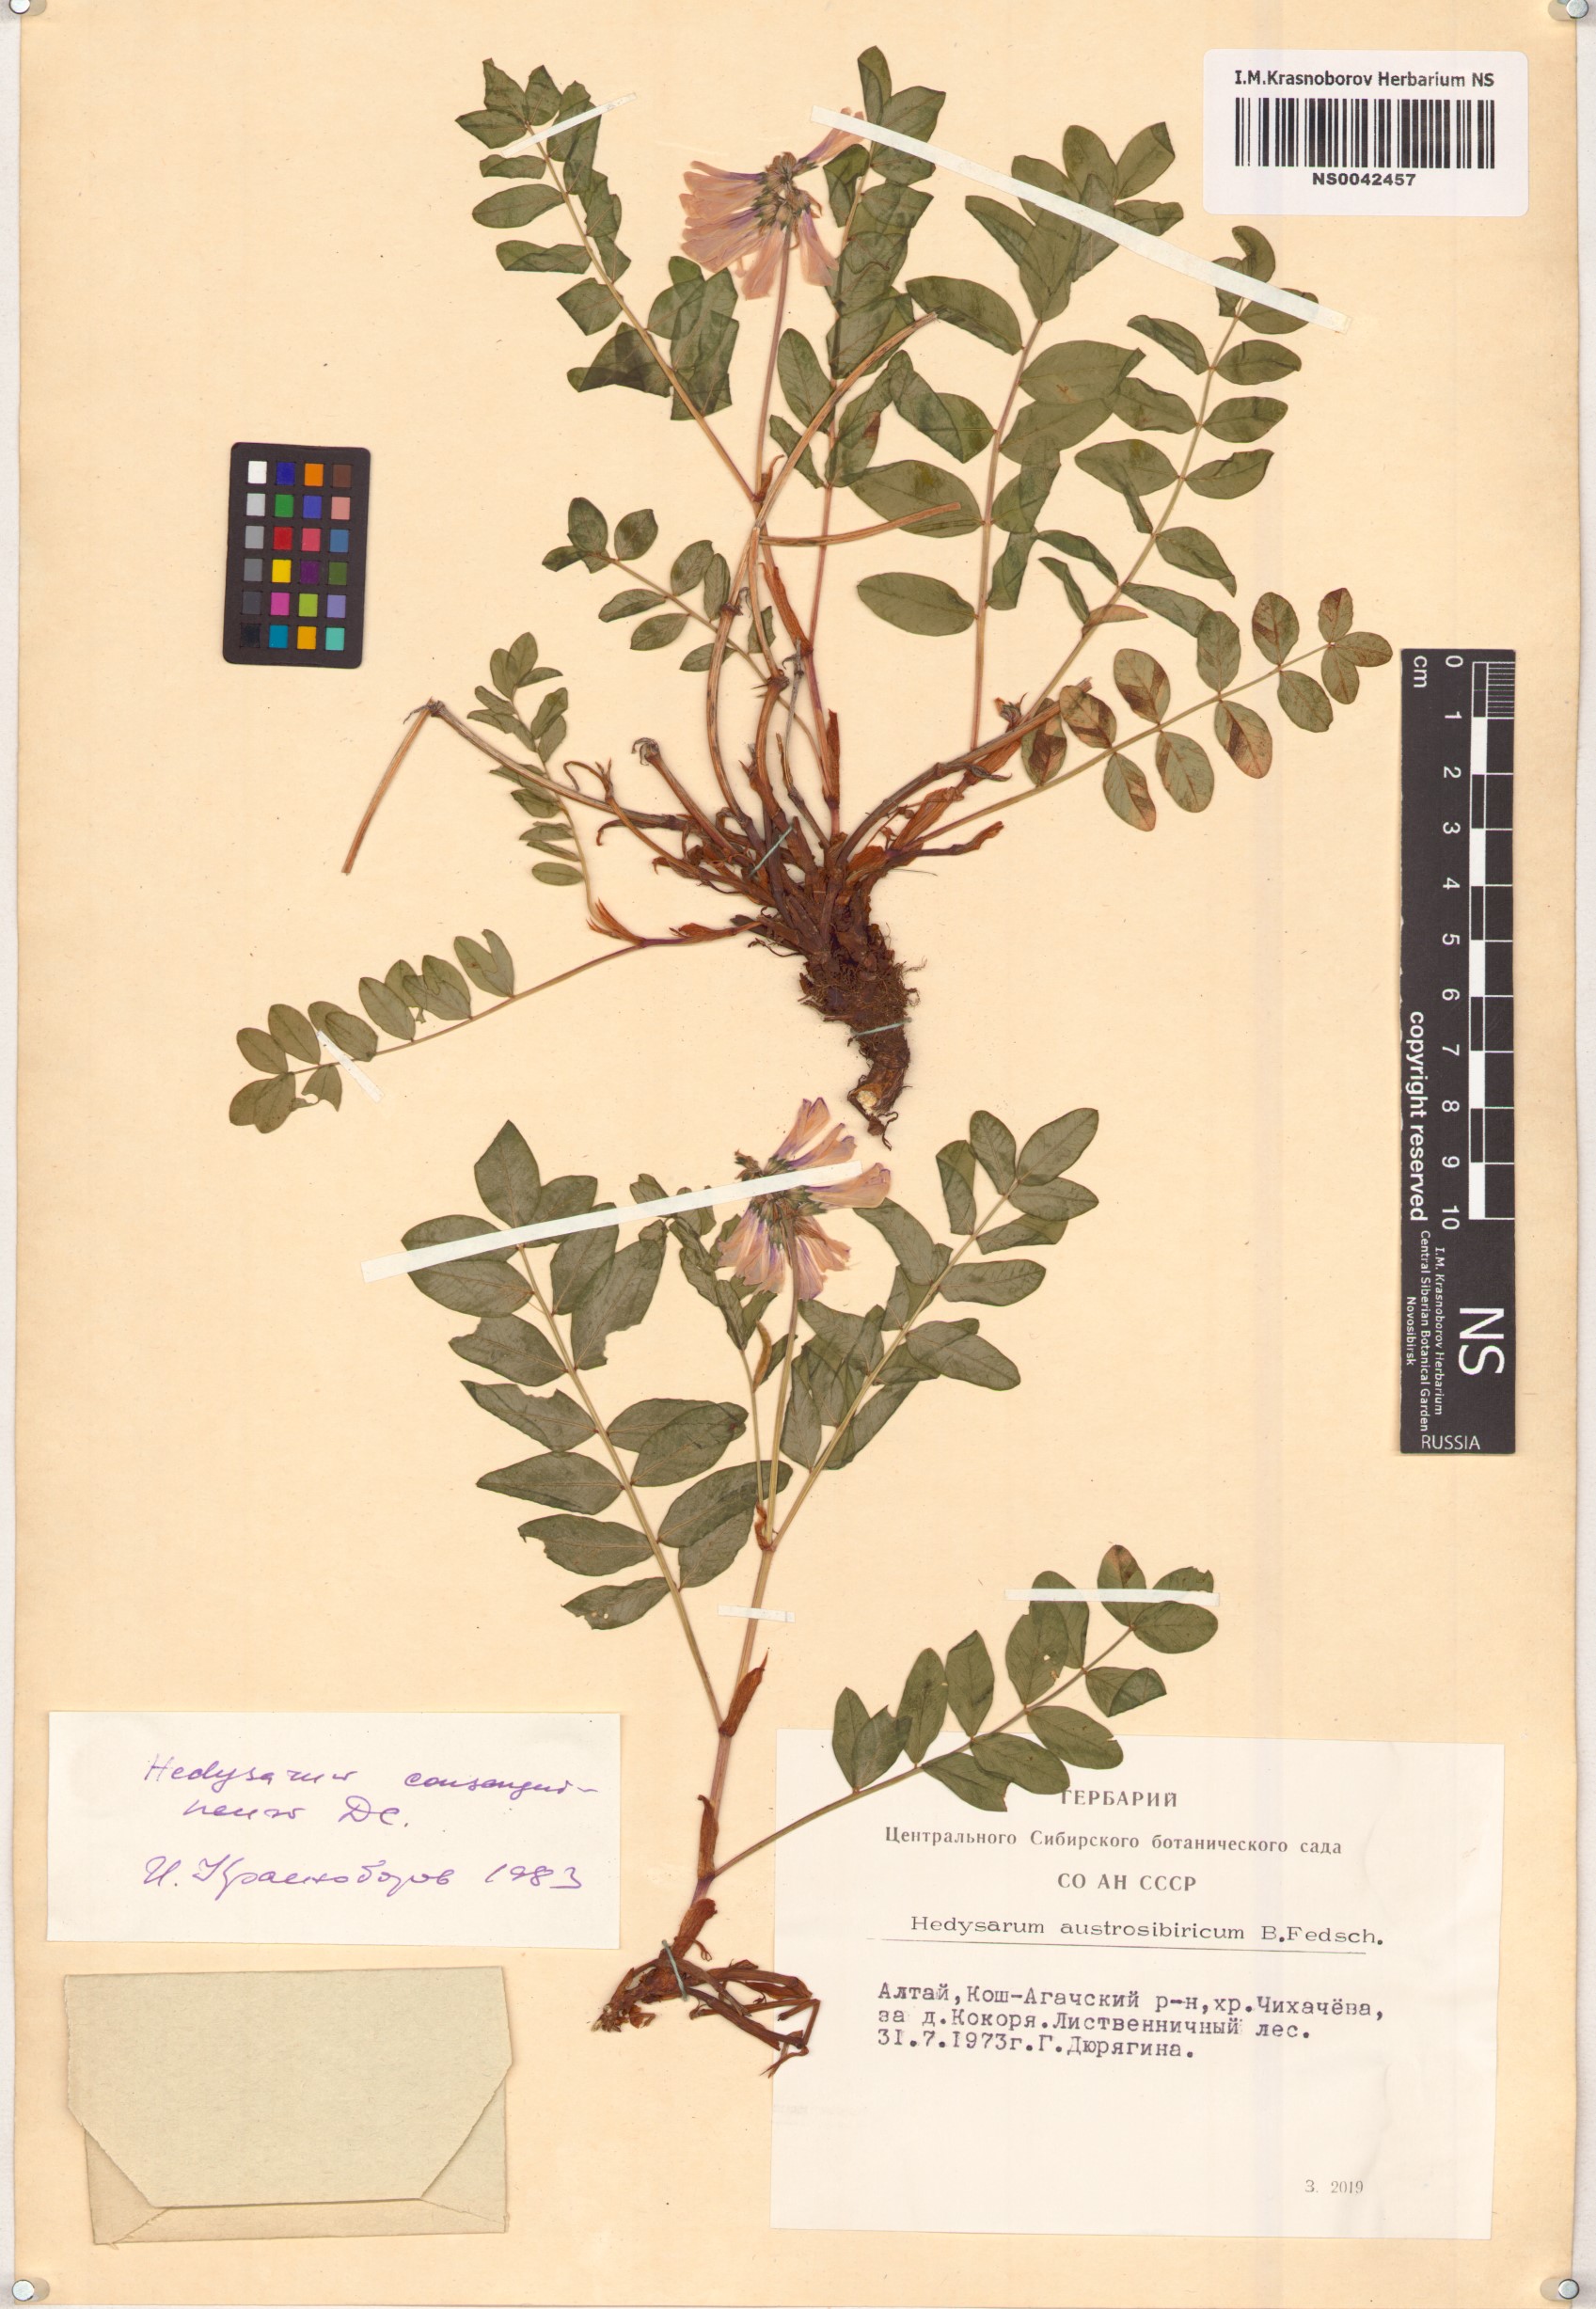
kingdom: Plantae
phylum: Tracheophyta
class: Magnoliopsida
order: Fabales
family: Fabaceae
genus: Hedysarum
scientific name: Hedysarum consanguineum
